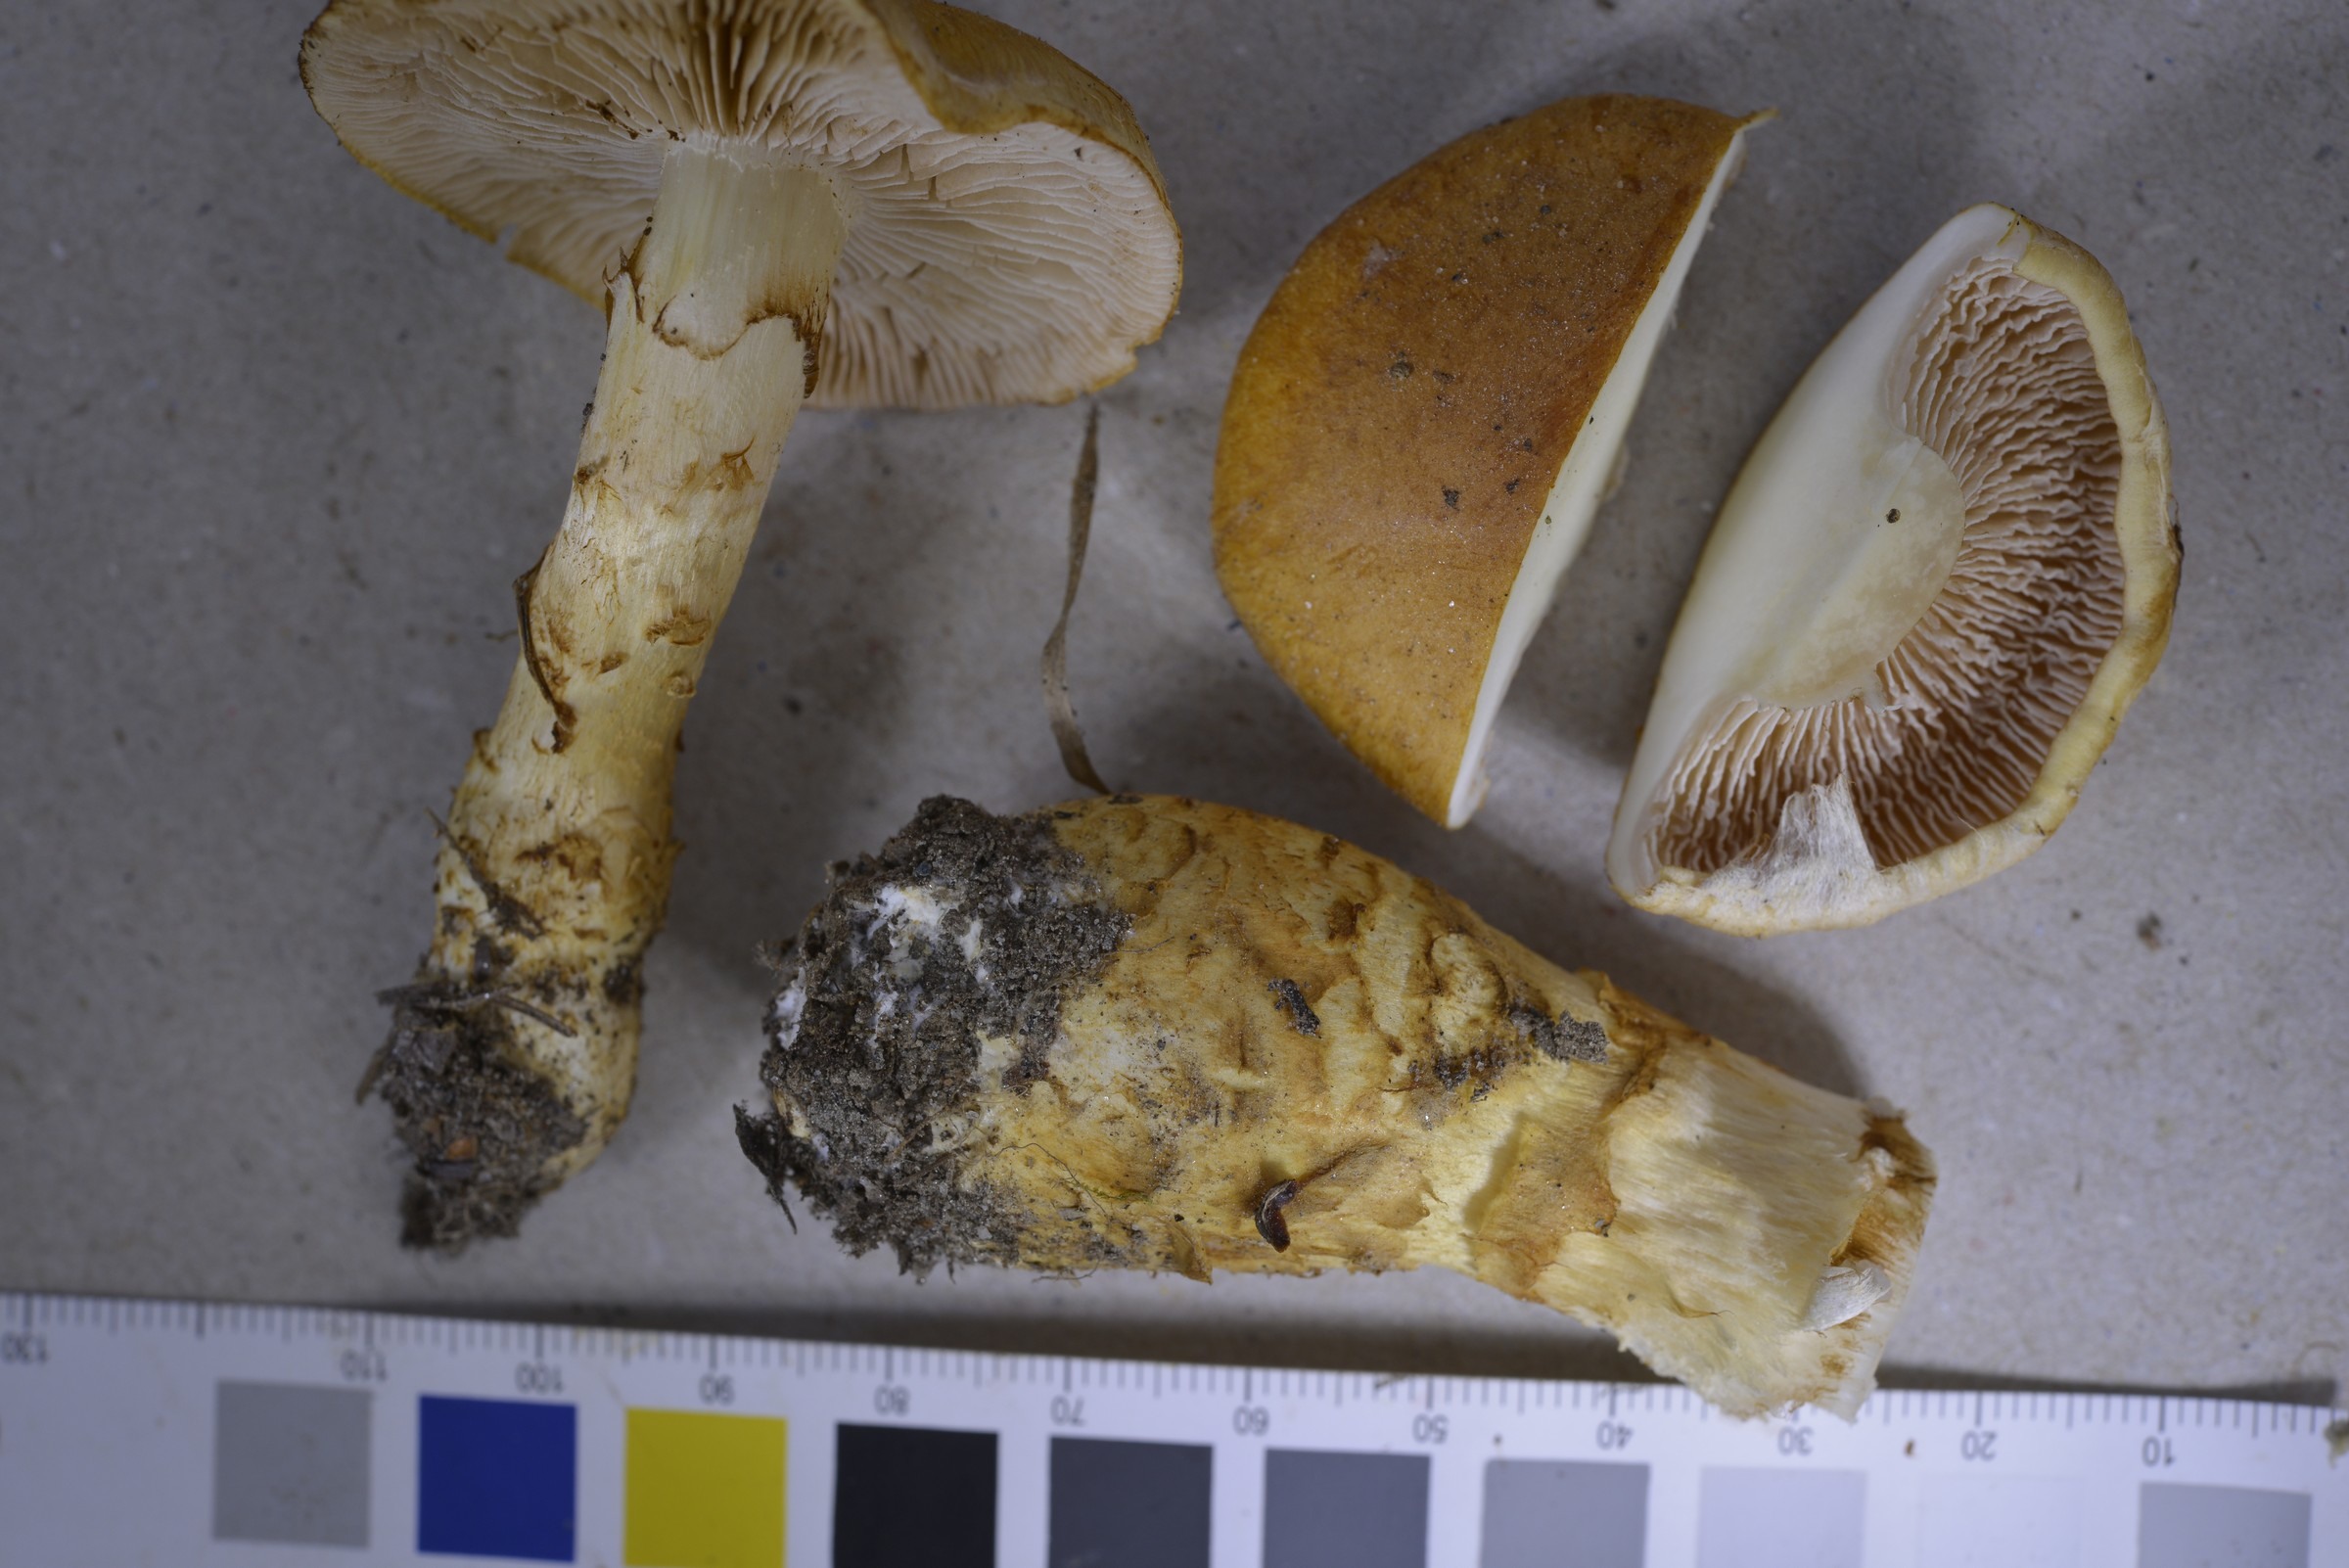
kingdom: Fungi
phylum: Basidiomycota
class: Agaricomycetes
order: Agaricales
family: Cortinariaceae
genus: Phlegmacium
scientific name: Phlegmacium triumphans
